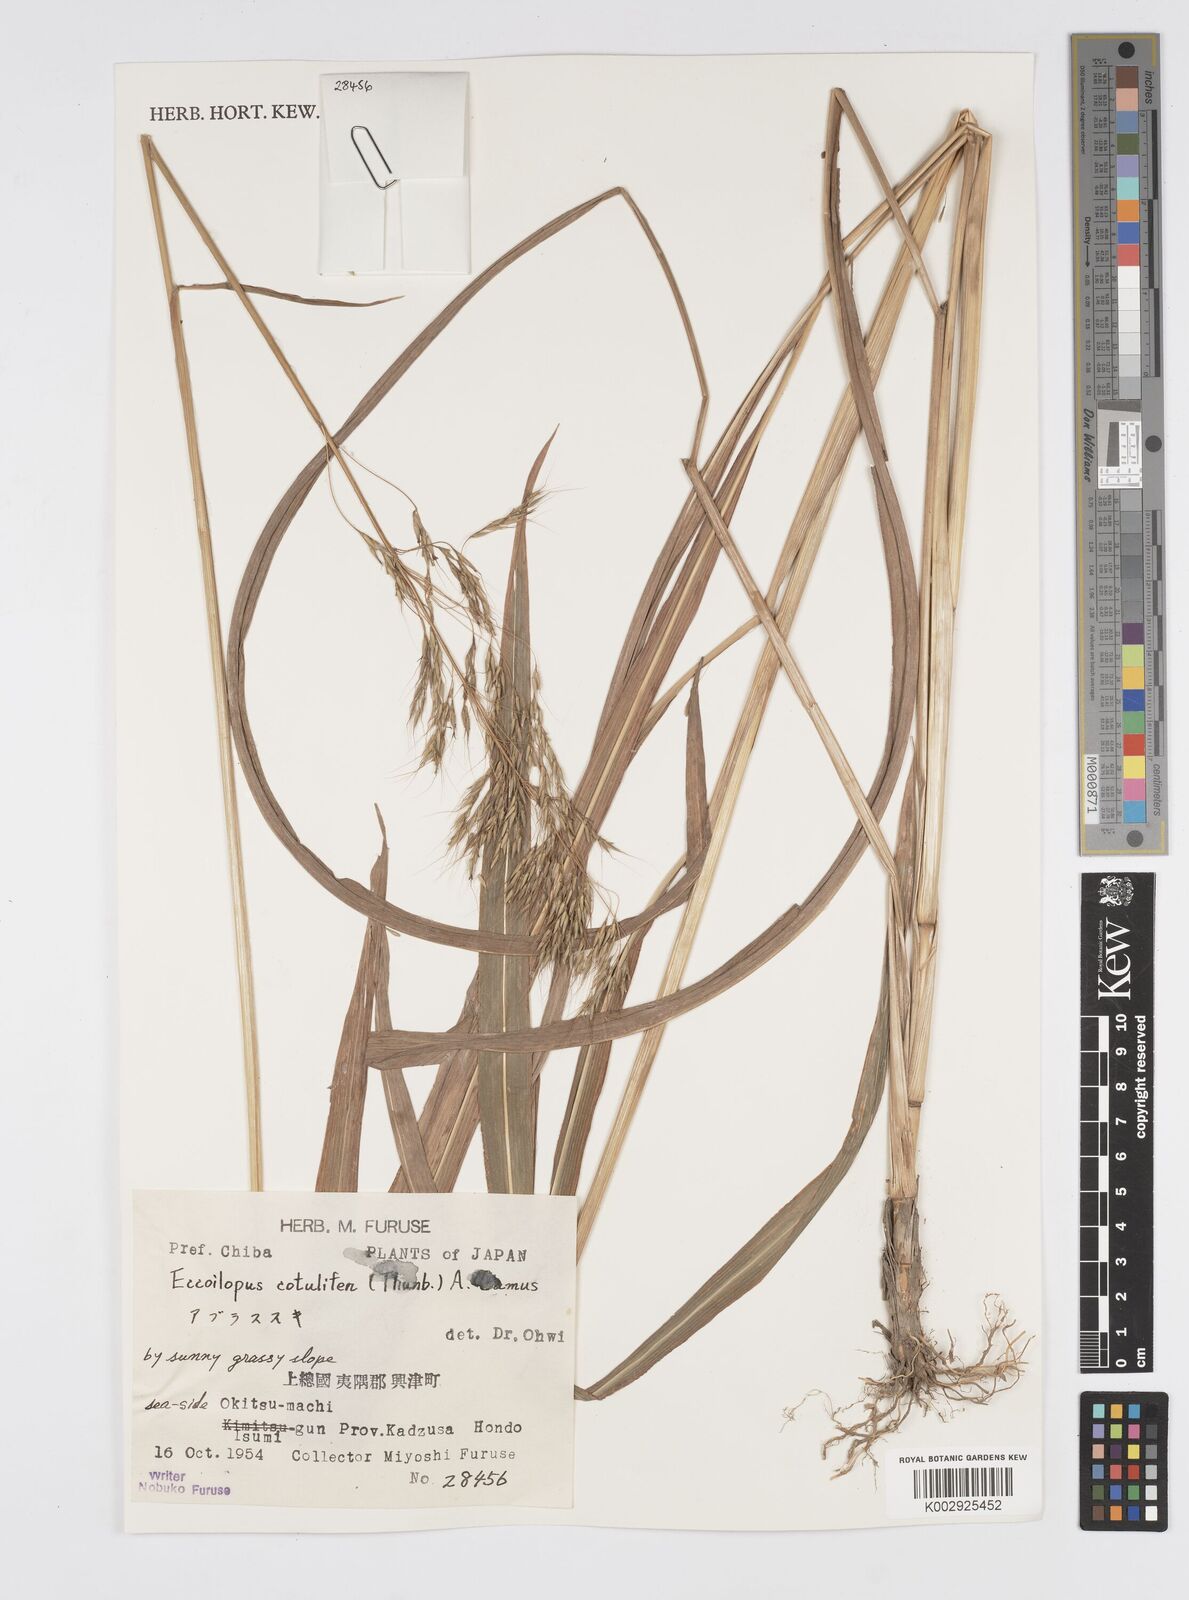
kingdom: Plantae
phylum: Tracheophyta
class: Liliopsida
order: Poales
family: Poaceae
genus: Spodiopogon
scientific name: Spodiopogon cotulifer
